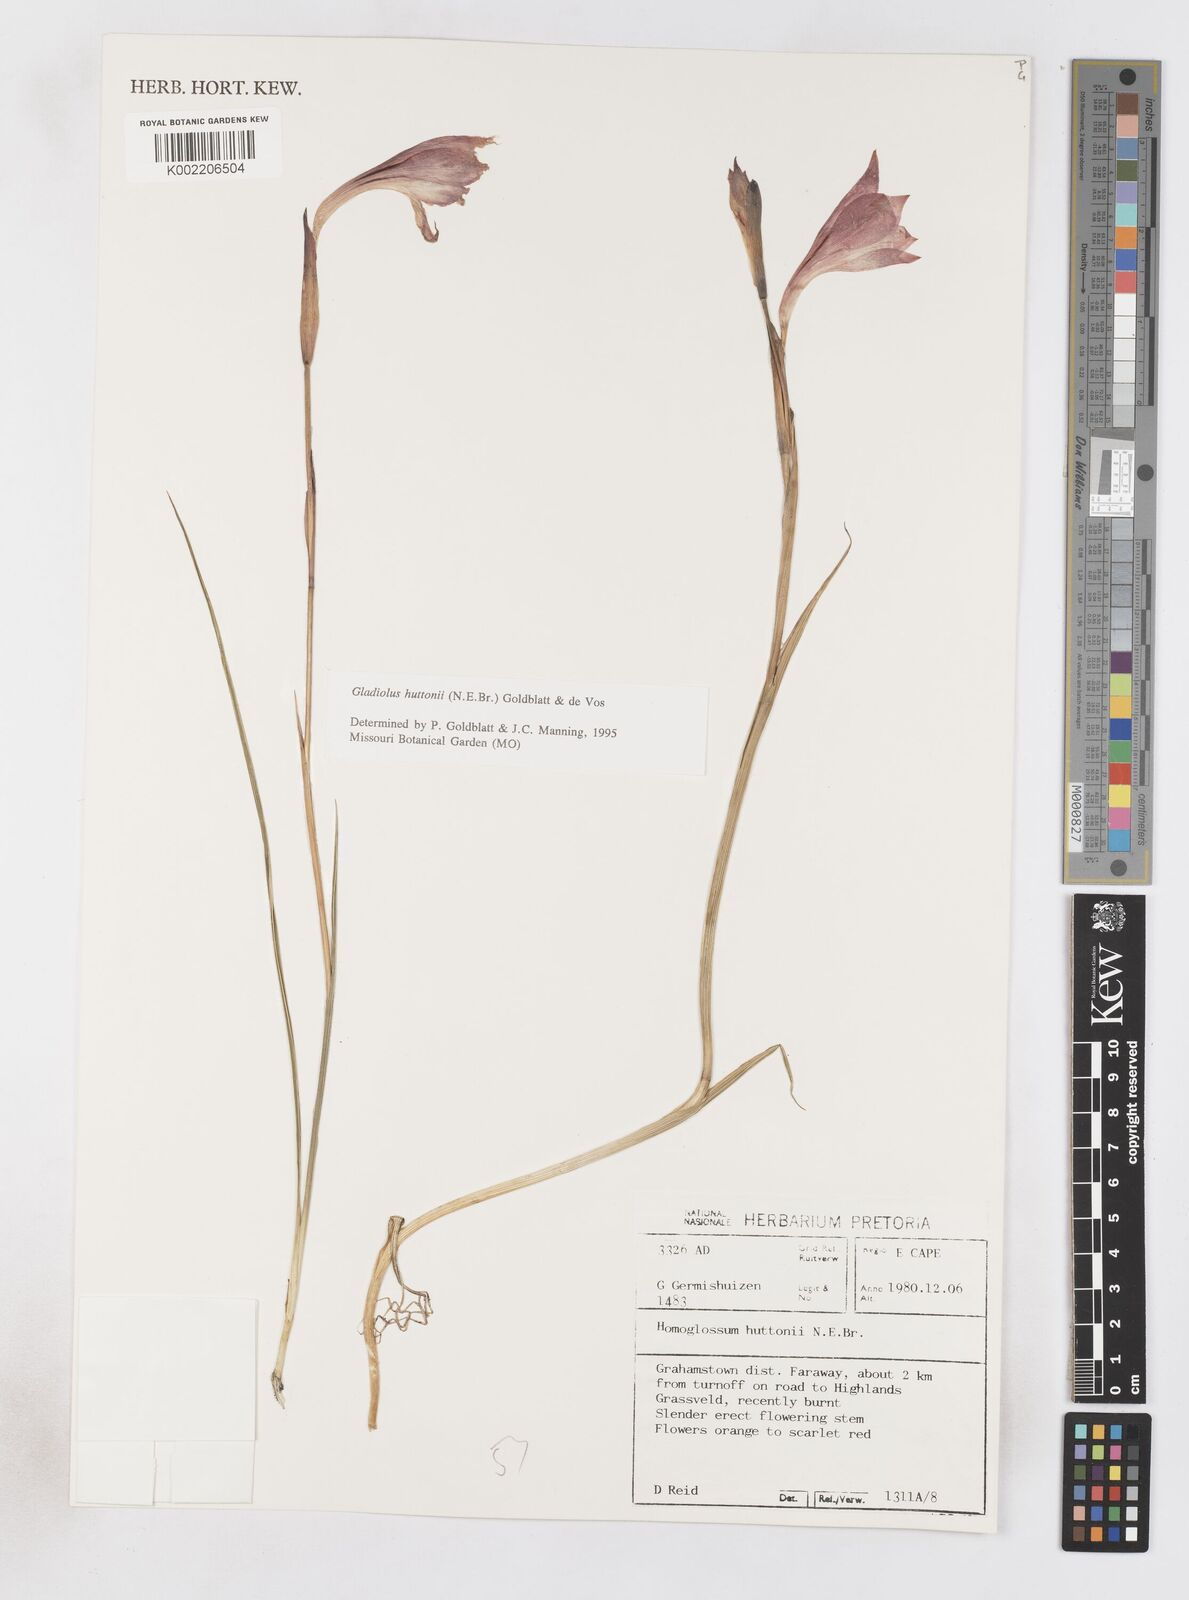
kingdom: Plantae
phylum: Tracheophyta
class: Liliopsida
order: Asparagales
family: Iridaceae
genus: Gladiolus
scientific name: Gladiolus huttonii
